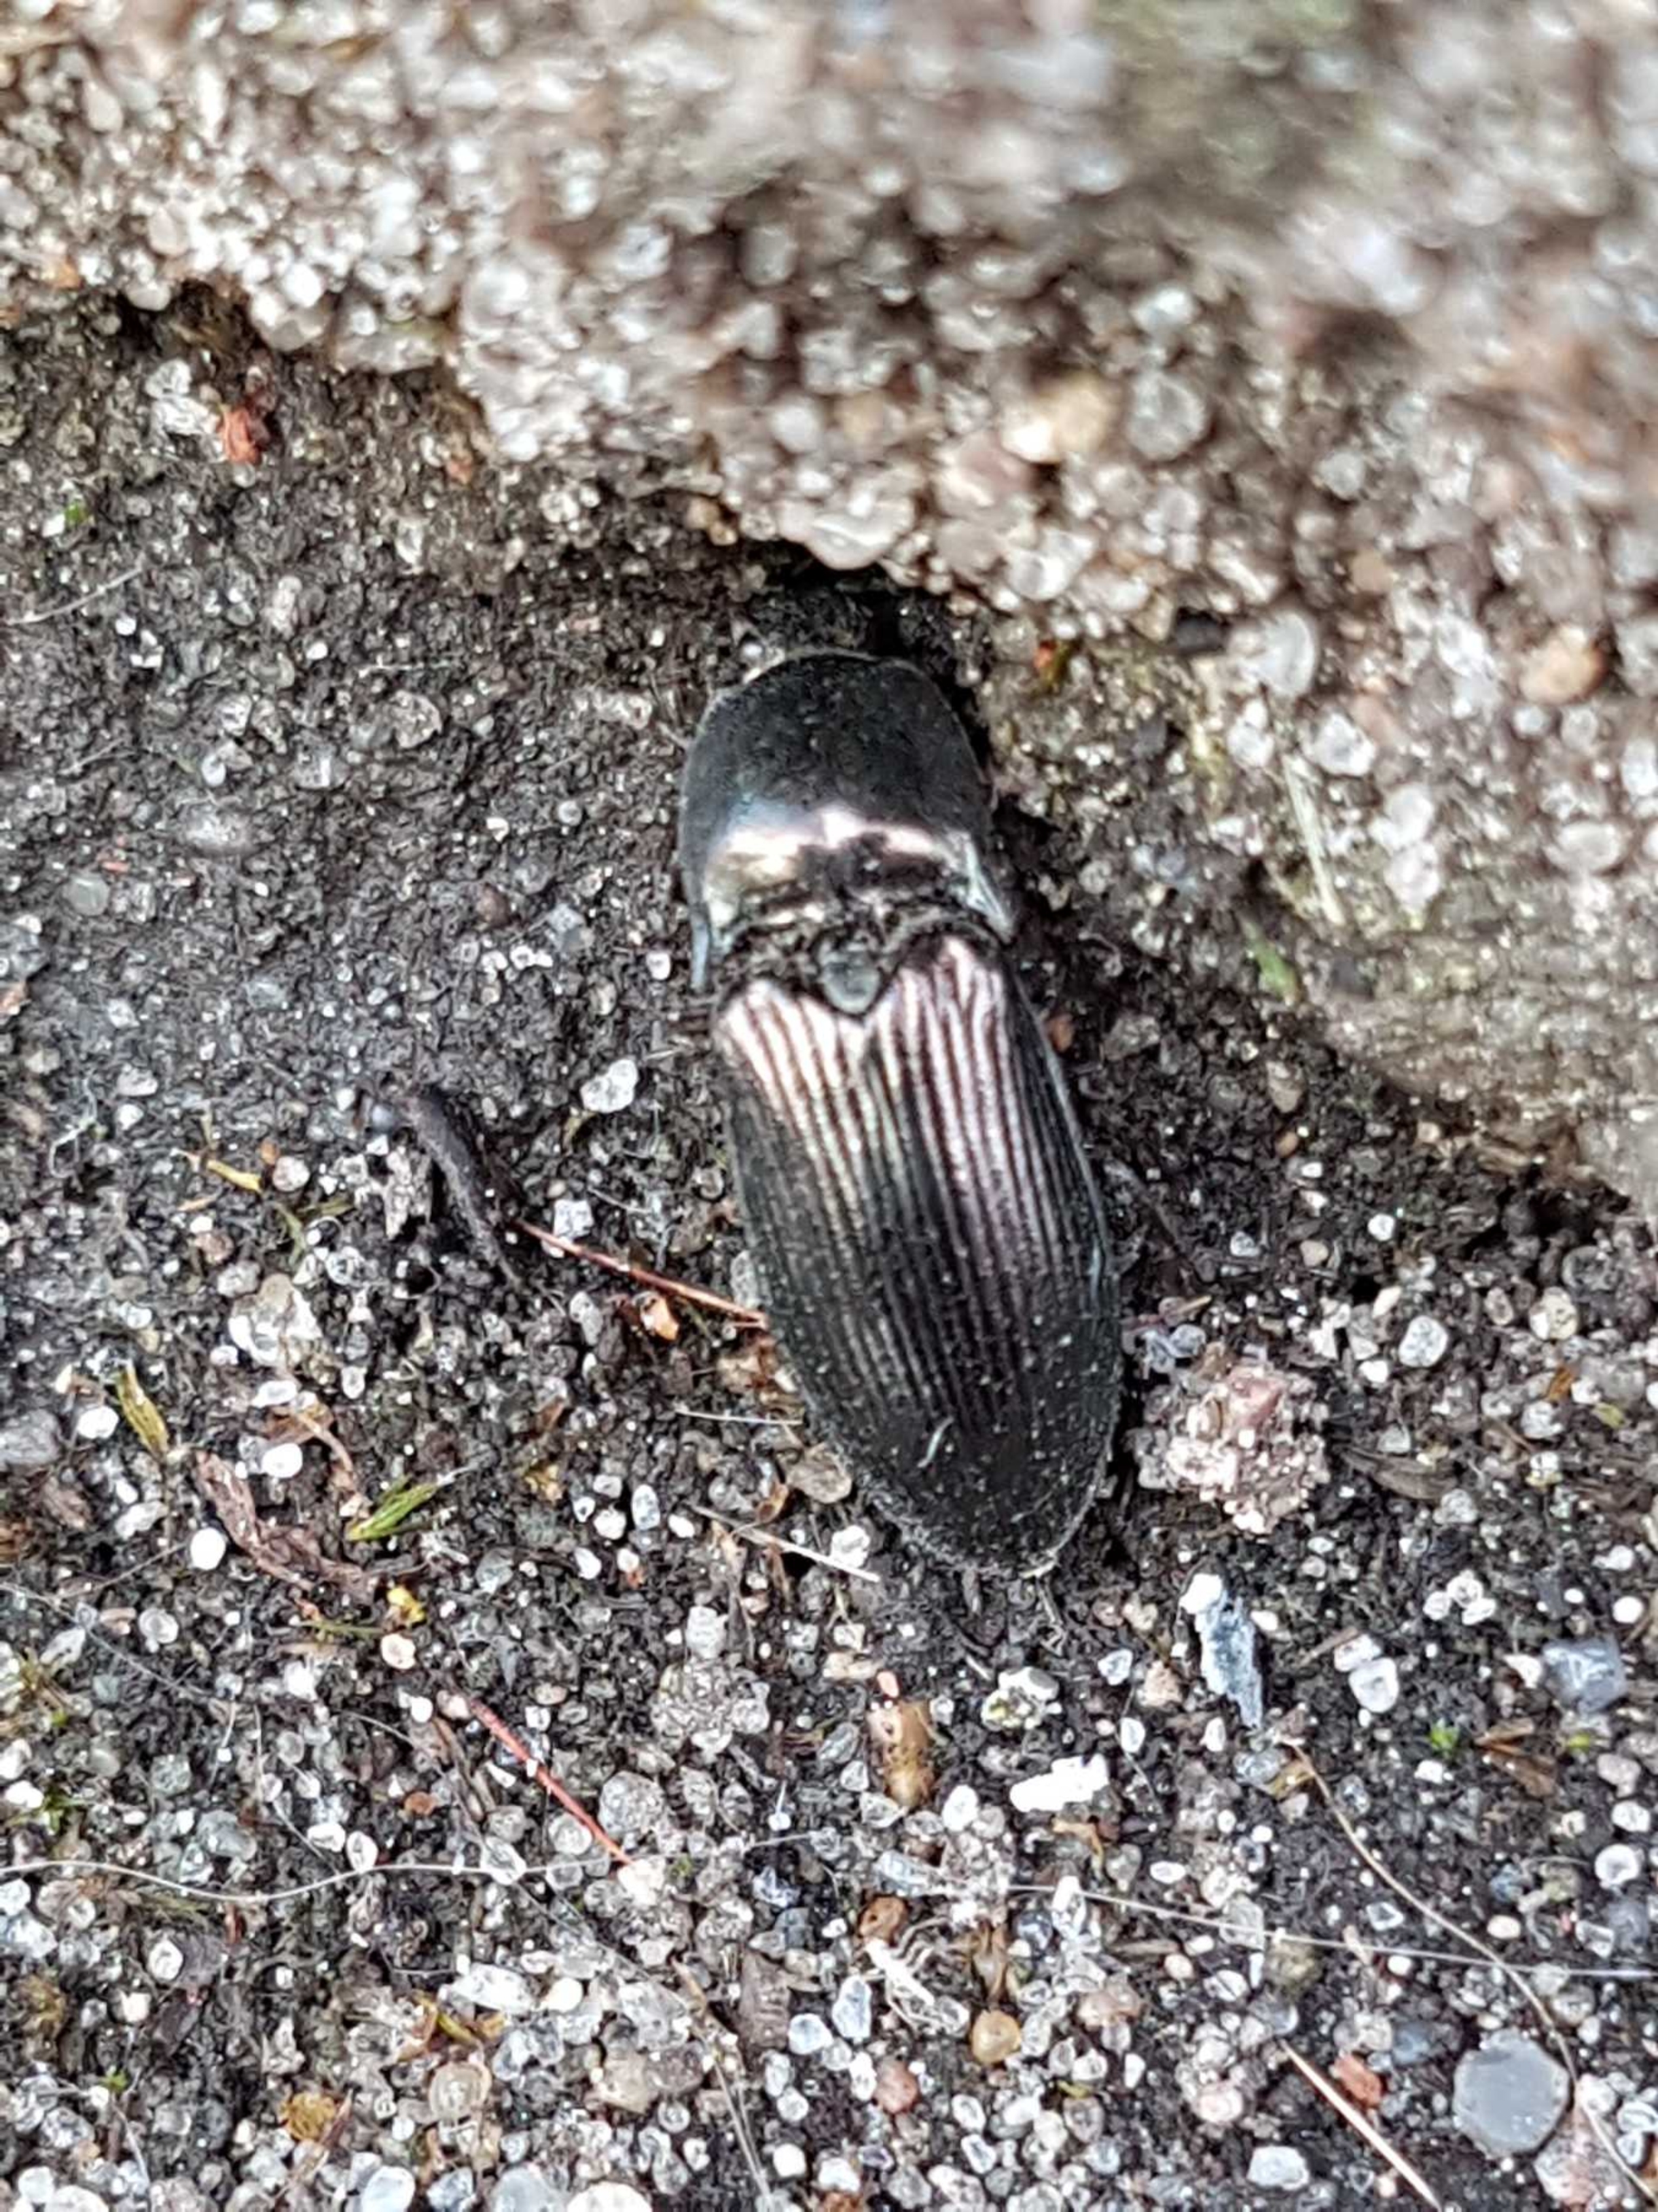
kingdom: Animalia
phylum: Arthropoda
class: Insecta
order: Coleoptera
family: Elateridae
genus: Selatosomus
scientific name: Selatosomus aeneus
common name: Kobbersmælder
